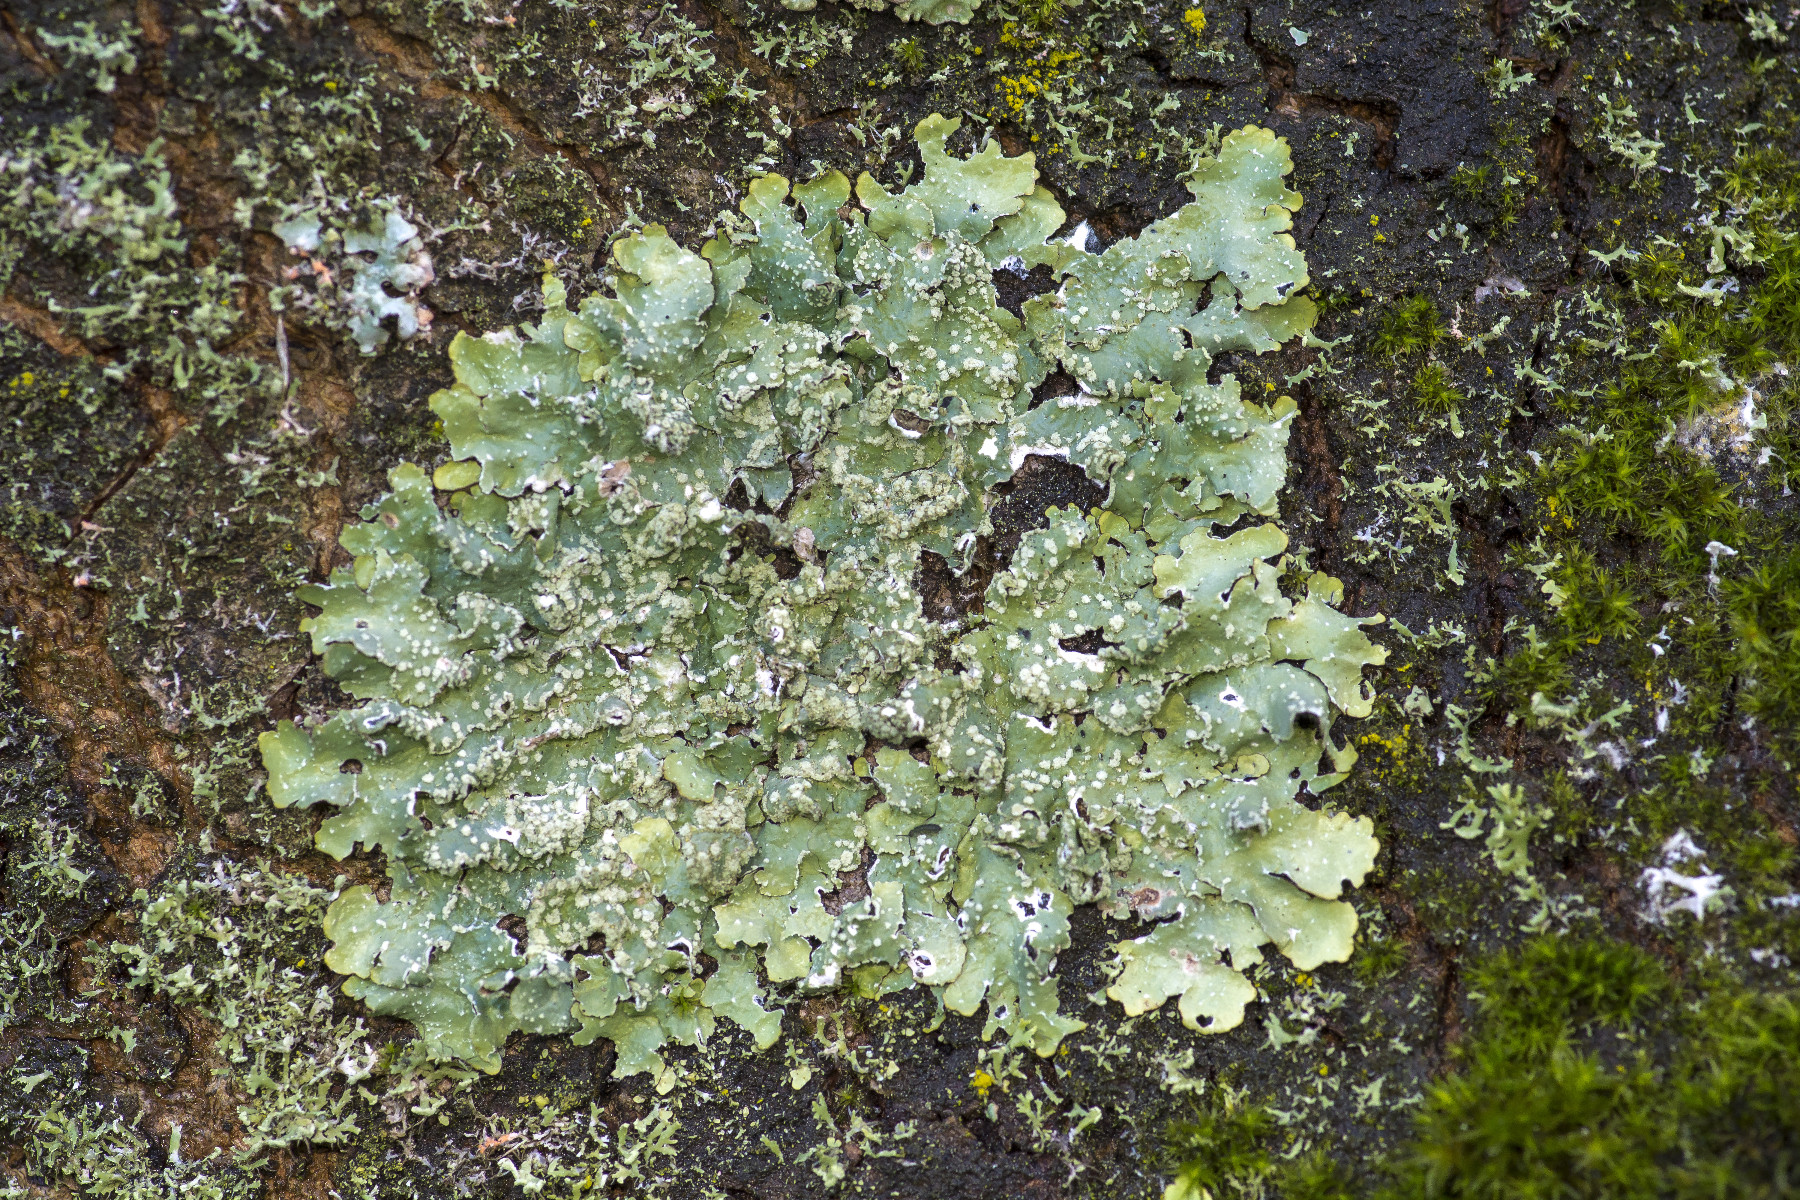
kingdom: Fungi
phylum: Ascomycota
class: Lecanoromycetes
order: Lecanorales
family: Parmeliaceae
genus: Punctelia
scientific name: Punctelia subrudecta
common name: punkt-skållav
